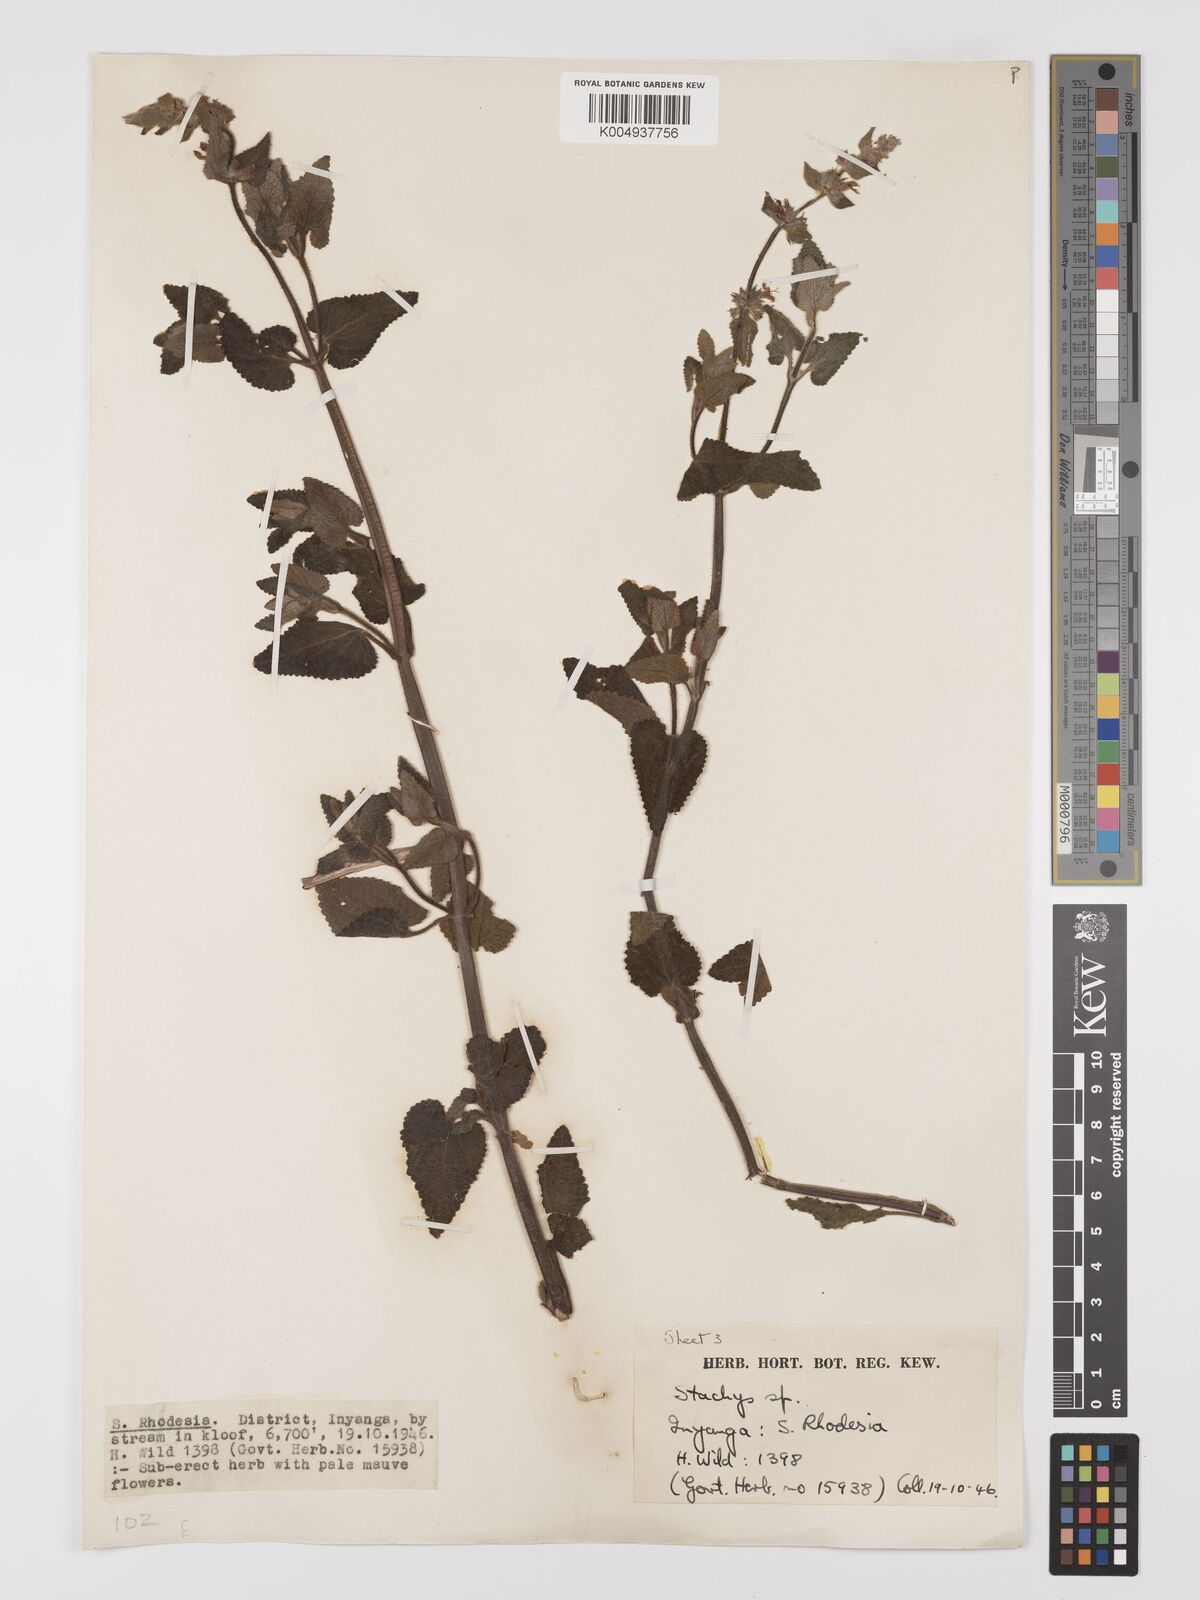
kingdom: Plantae
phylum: Tracheophyta
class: Magnoliopsida
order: Lamiales
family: Lamiaceae
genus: Stachys
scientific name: Stachys aethiopica
